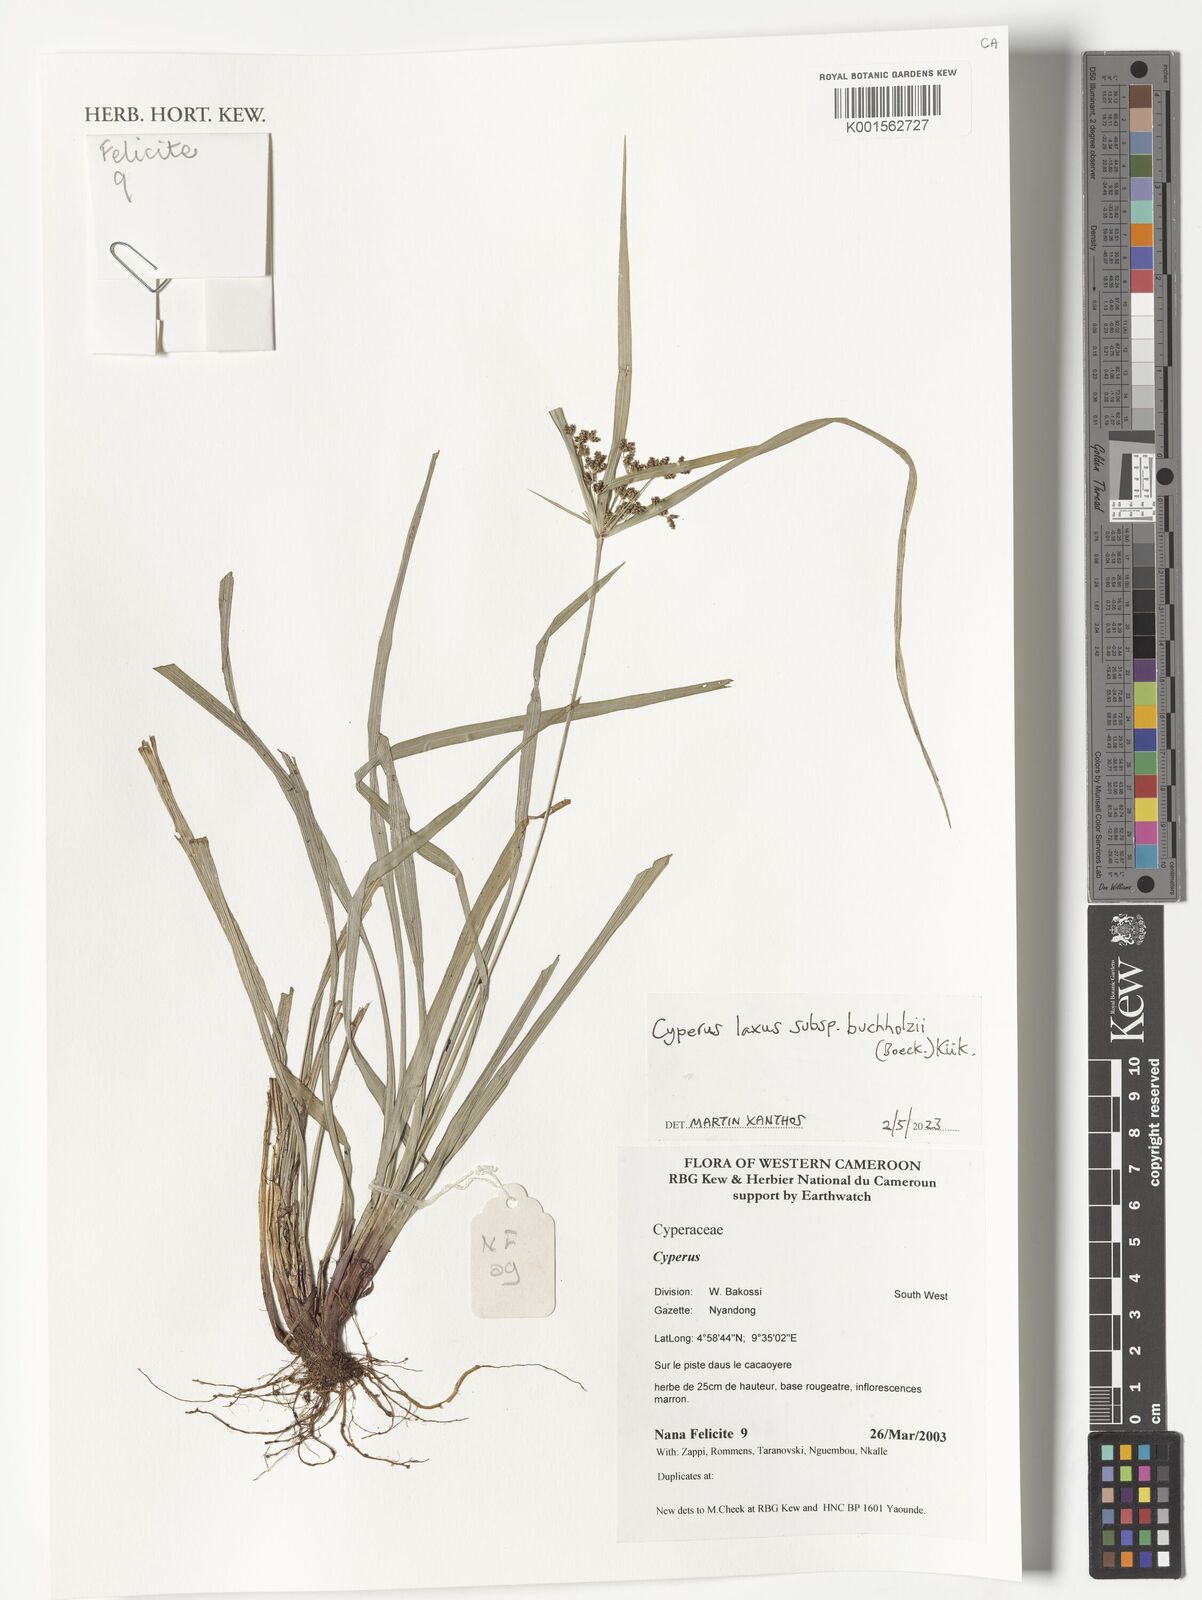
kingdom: Plantae
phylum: Tracheophyta
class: Liliopsida
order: Poales
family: Cyperaceae
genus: Cyperus
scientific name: Cyperus buchholzii
